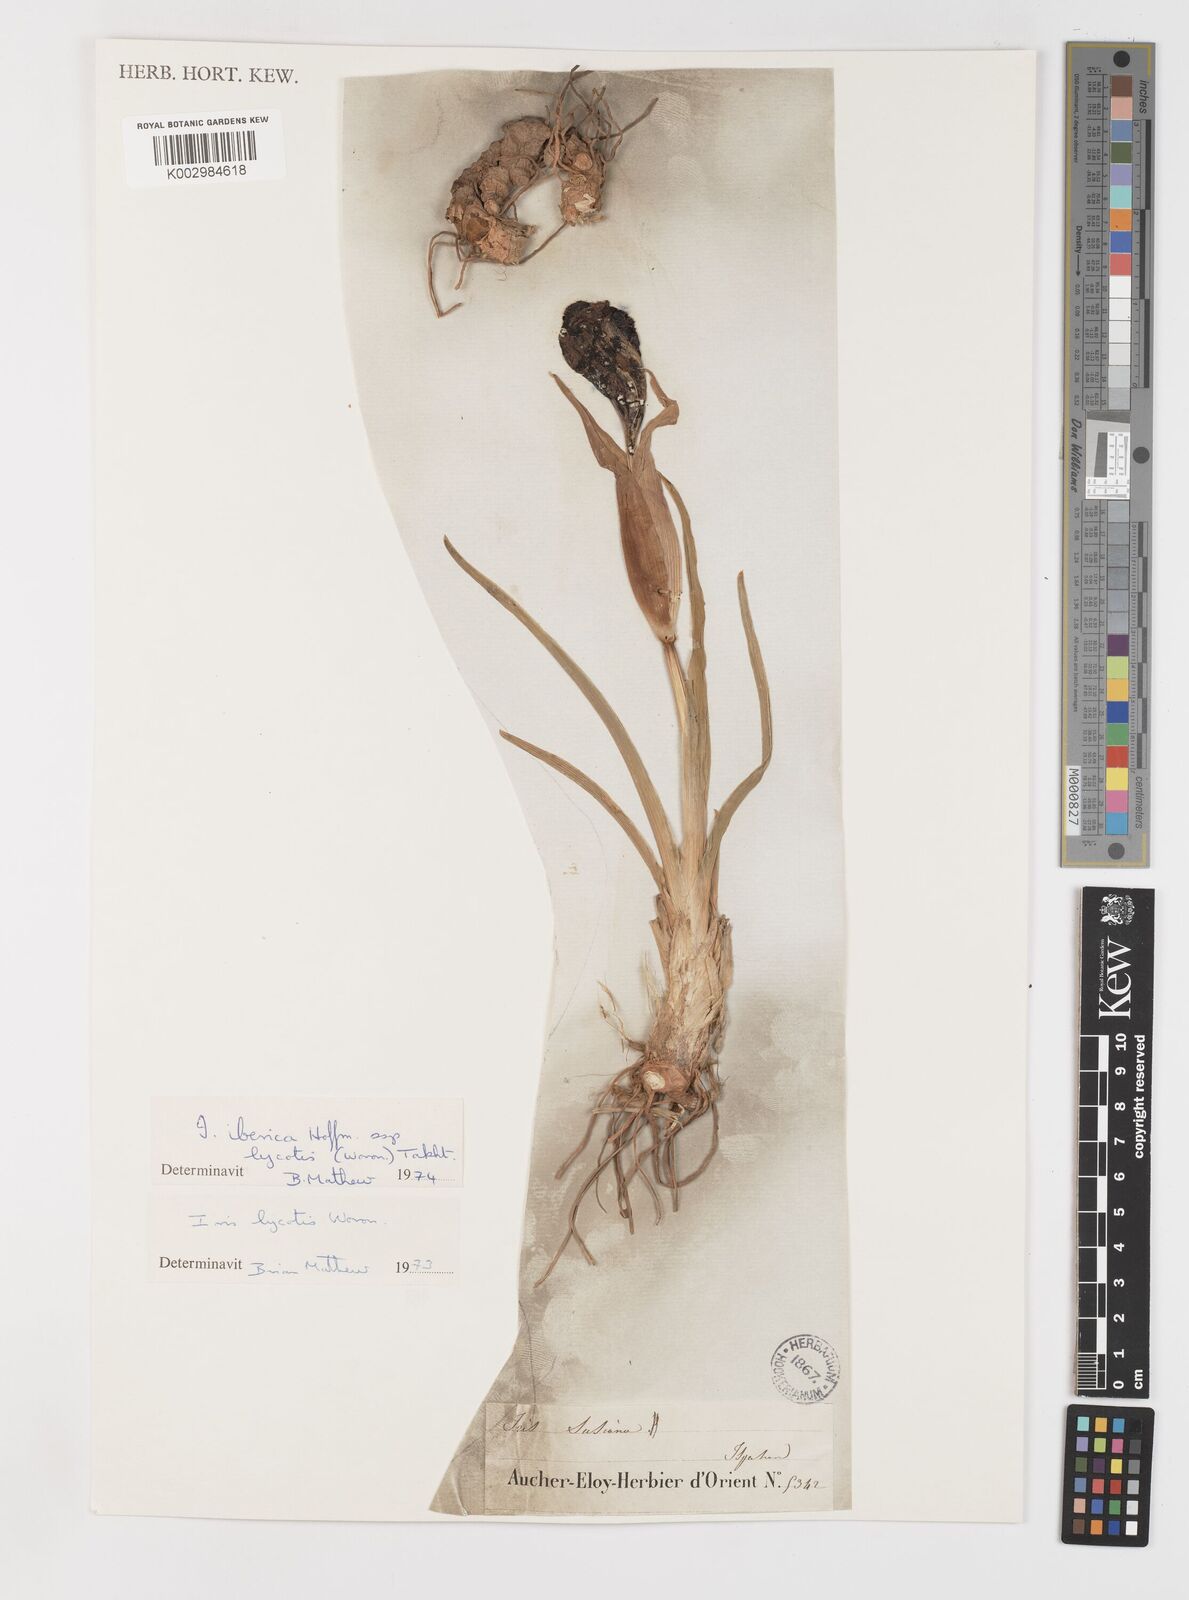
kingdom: Plantae
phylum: Tracheophyta
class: Liliopsida
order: Asparagales
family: Iridaceae
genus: Iris
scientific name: Iris lycotis
